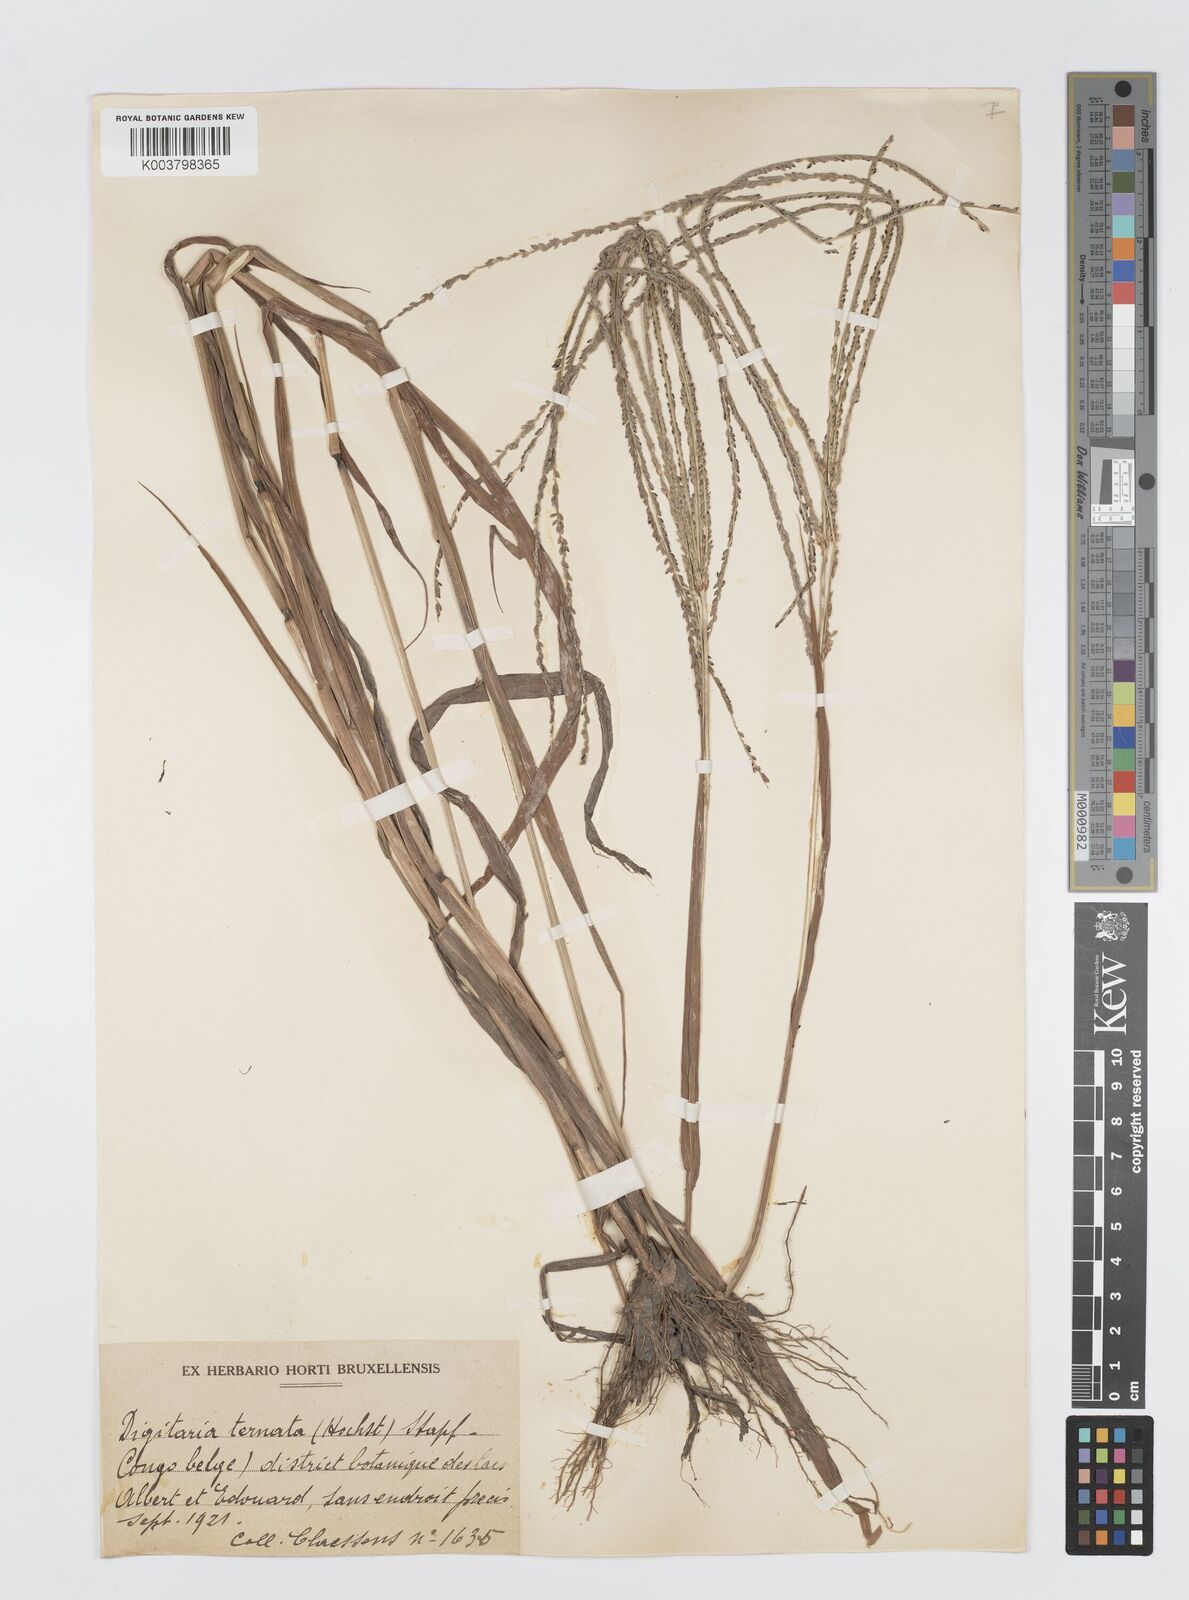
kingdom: Plantae
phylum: Tracheophyta
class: Liliopsida
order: Poales
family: Poaceae
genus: Digitaria
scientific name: Digitaria ternata
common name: Blackseed crabgrass
